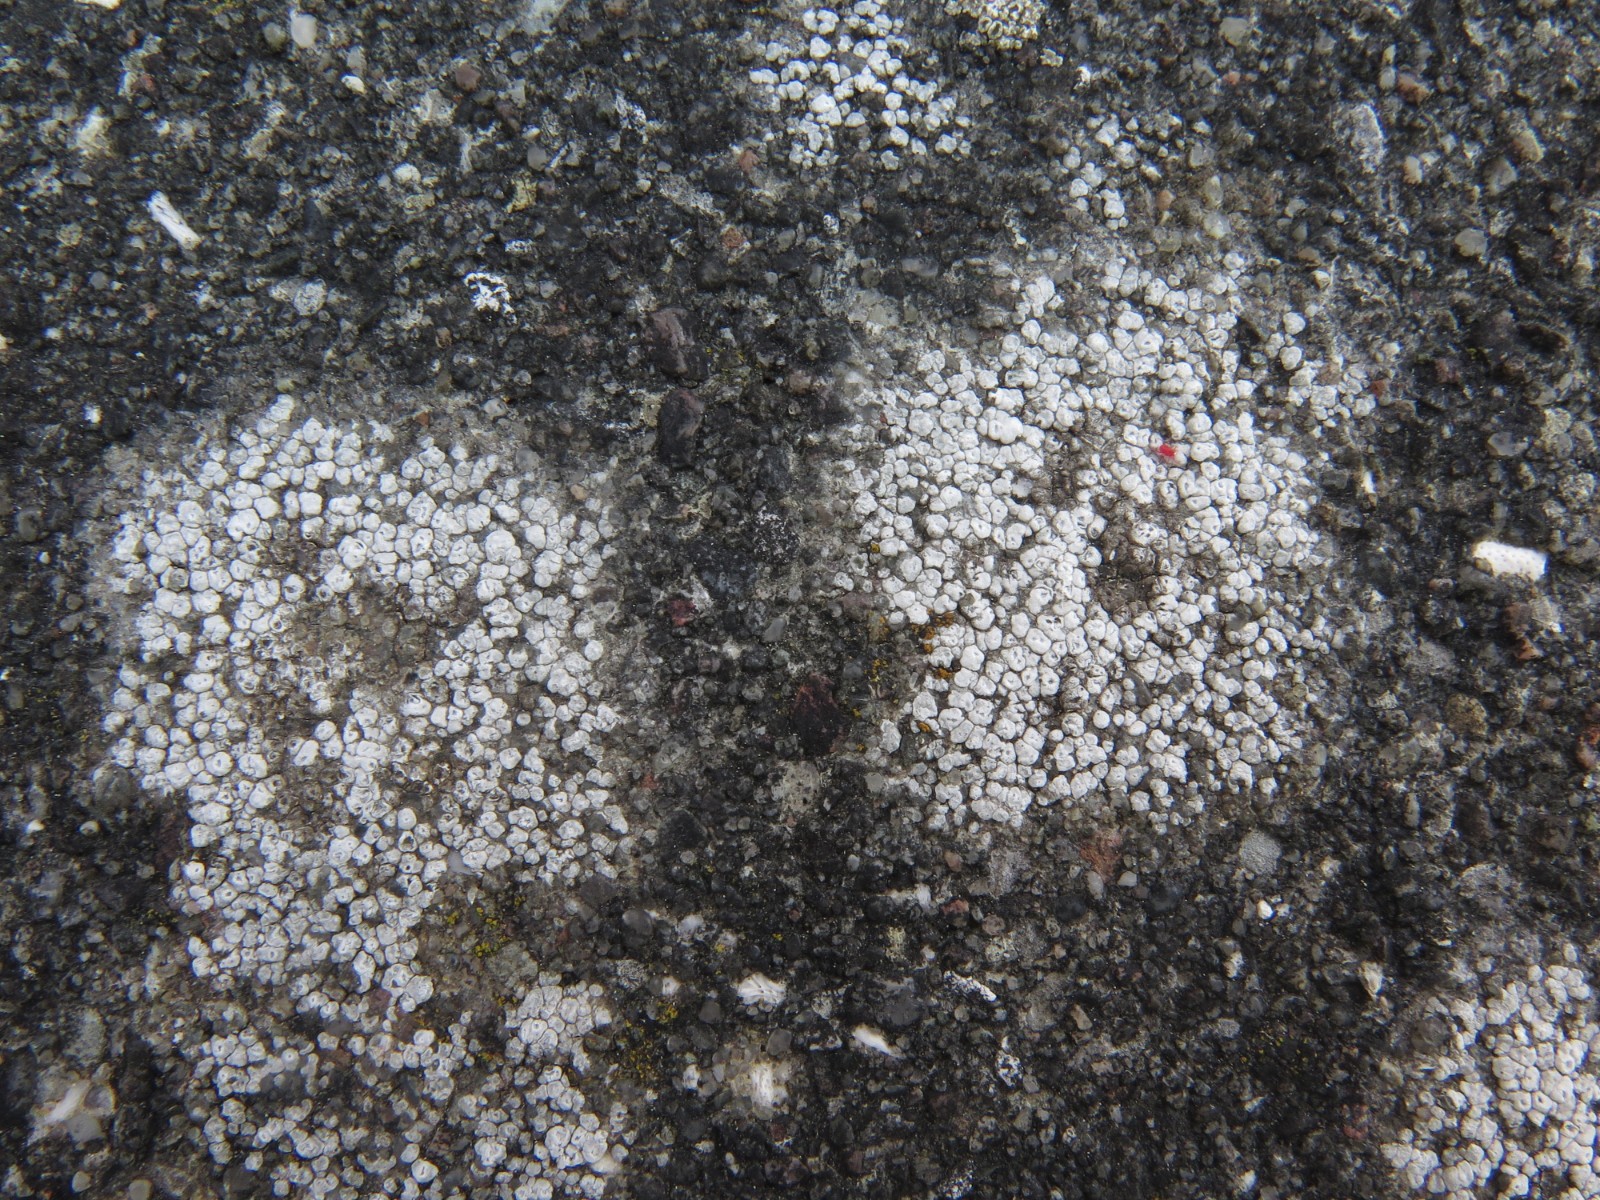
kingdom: Fungi
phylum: Ascomycota
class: Lecanoromycetes
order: Pertusariales
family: Megasporaceae
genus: Circinaria
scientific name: Circinaria contorta
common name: indviklet hulskivelav
